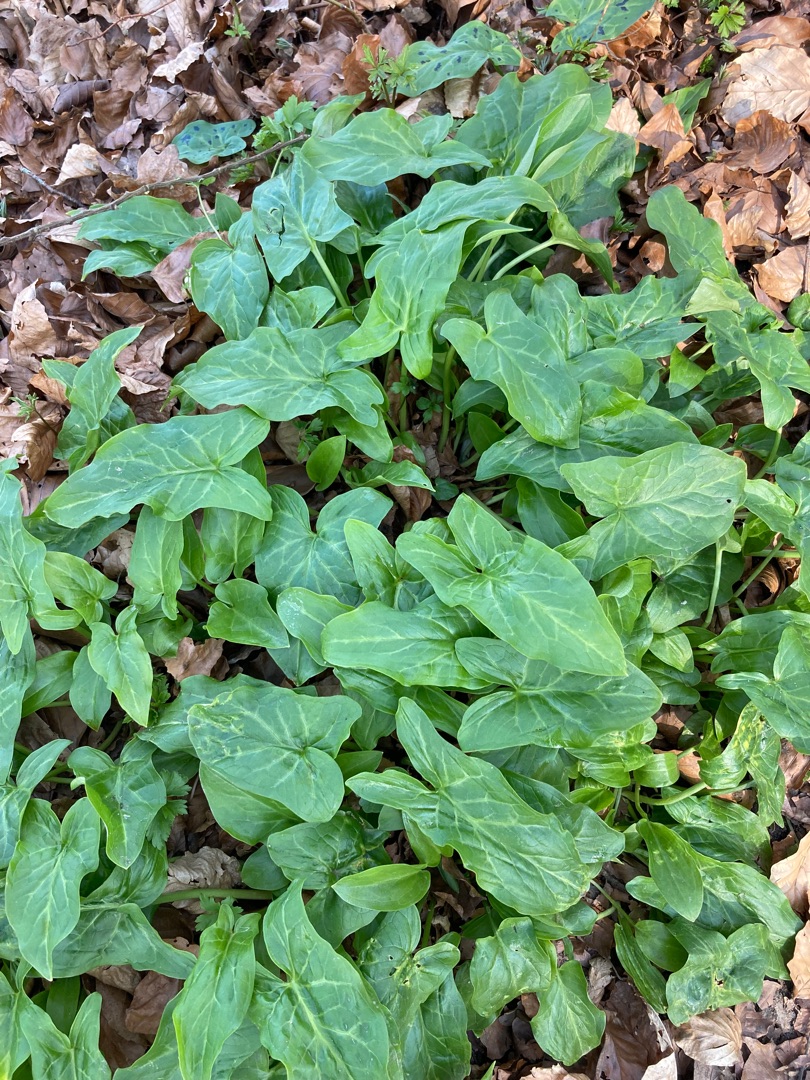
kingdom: Plantae
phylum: Tracheophyta
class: Liliopsida
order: Alismatales
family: Araceae
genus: Arum
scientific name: Arum italicum
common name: Italiensk arum
